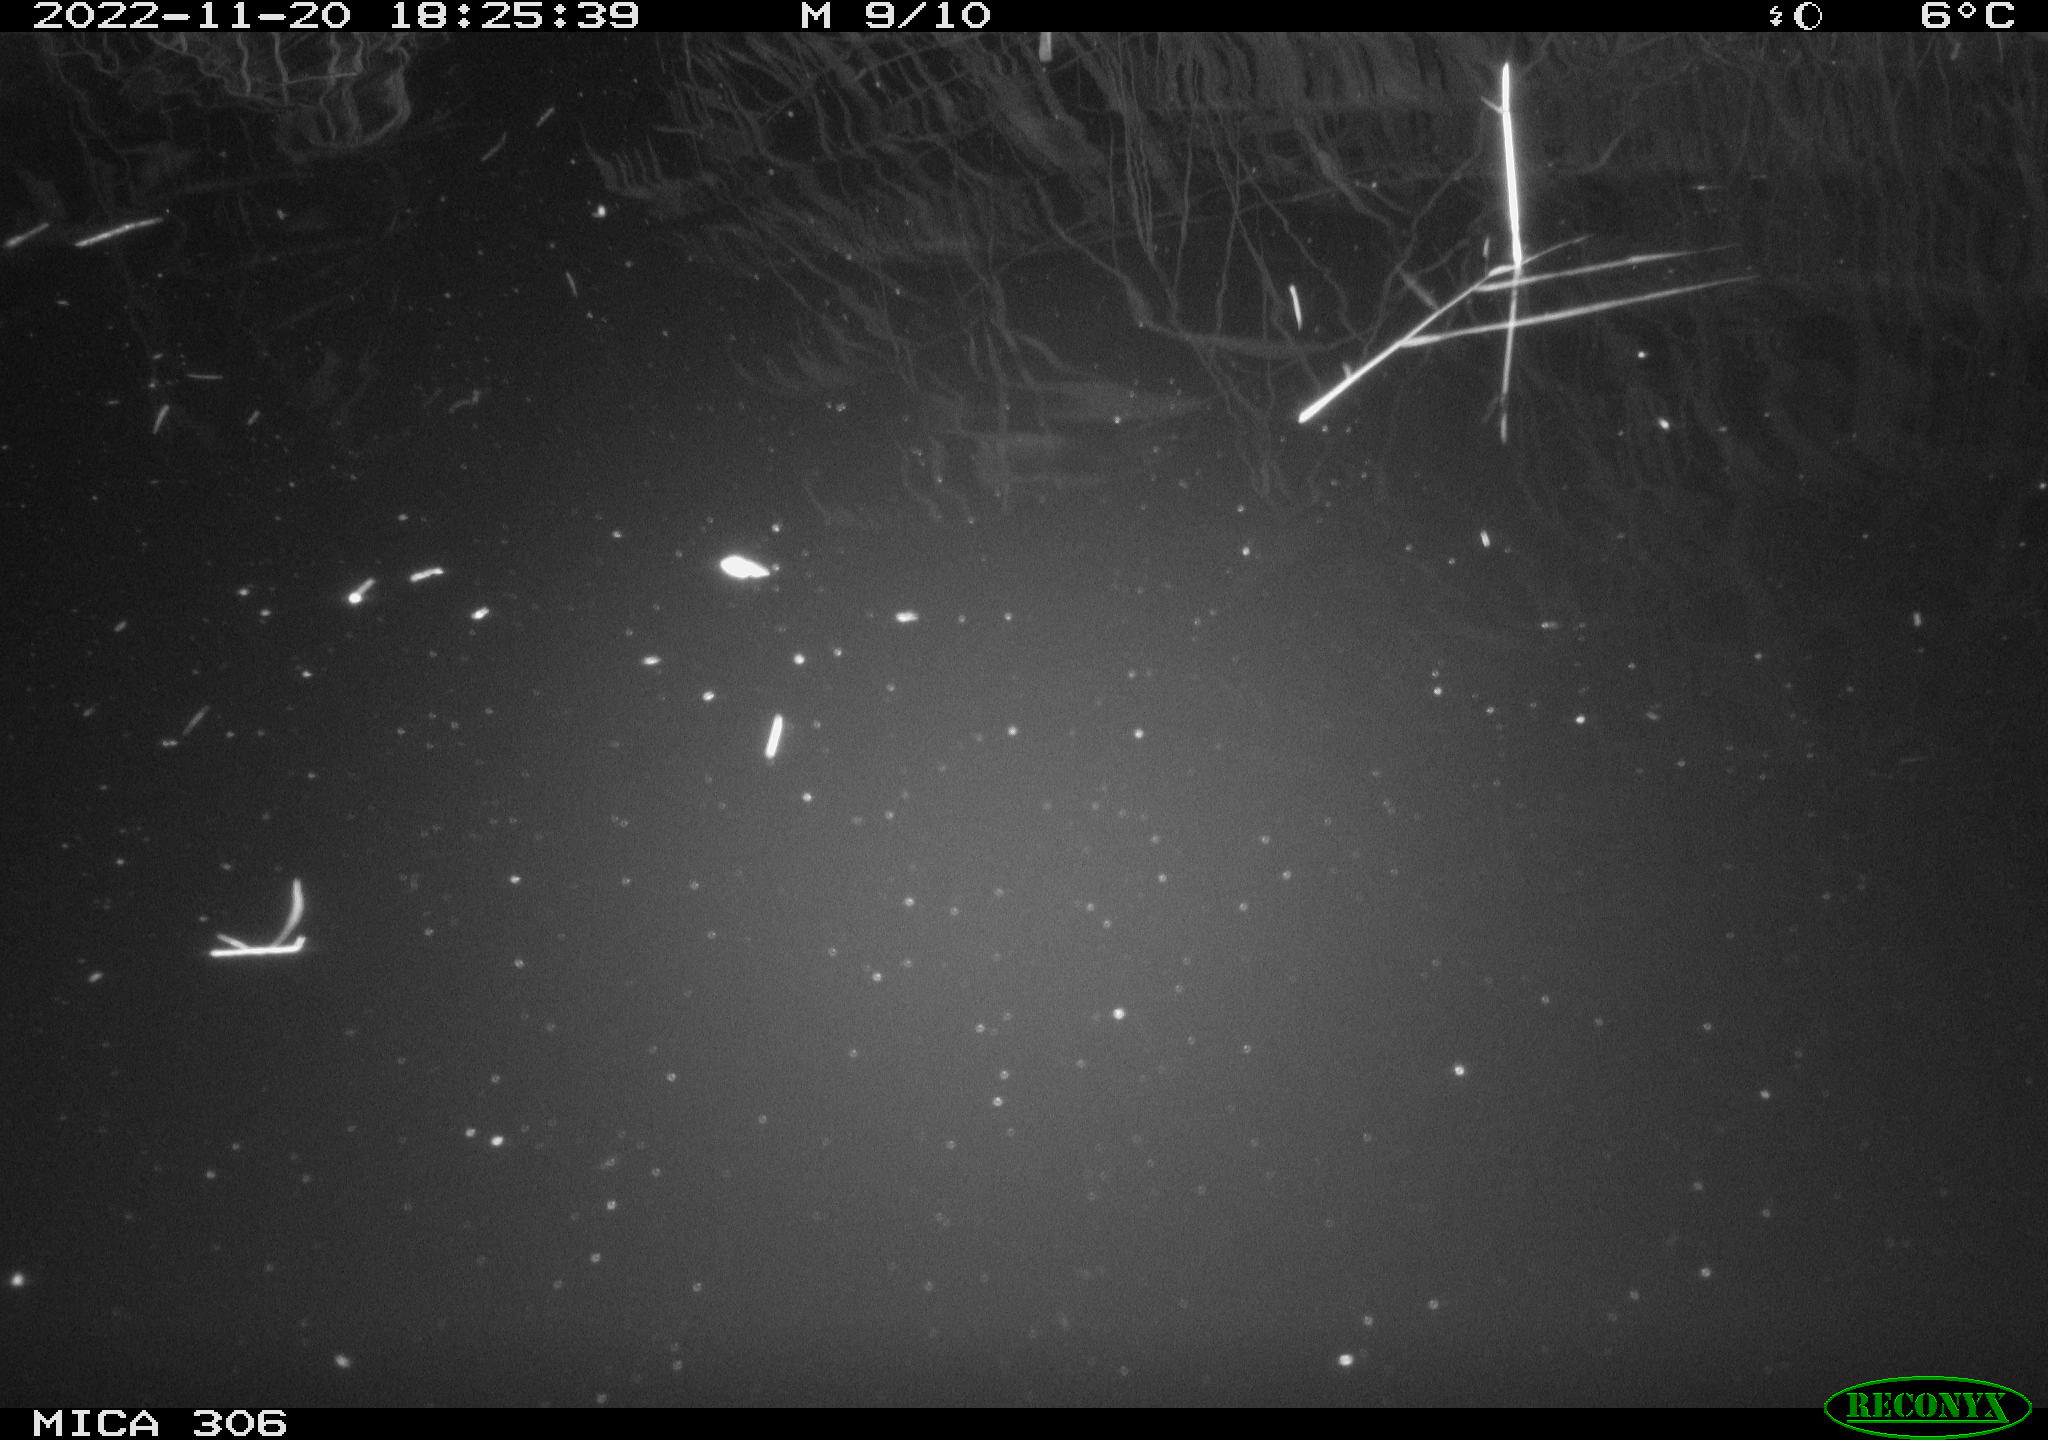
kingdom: Animalia
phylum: Chordata
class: Mammalia
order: Rodentia
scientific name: Rodentia
